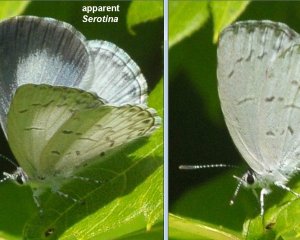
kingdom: Animalia
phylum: Arthropoda
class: Insecta
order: Lepidoptera
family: Lycaenidae
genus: Celastrina
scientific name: Celastrina serotina
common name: Cherry Gall Azure
